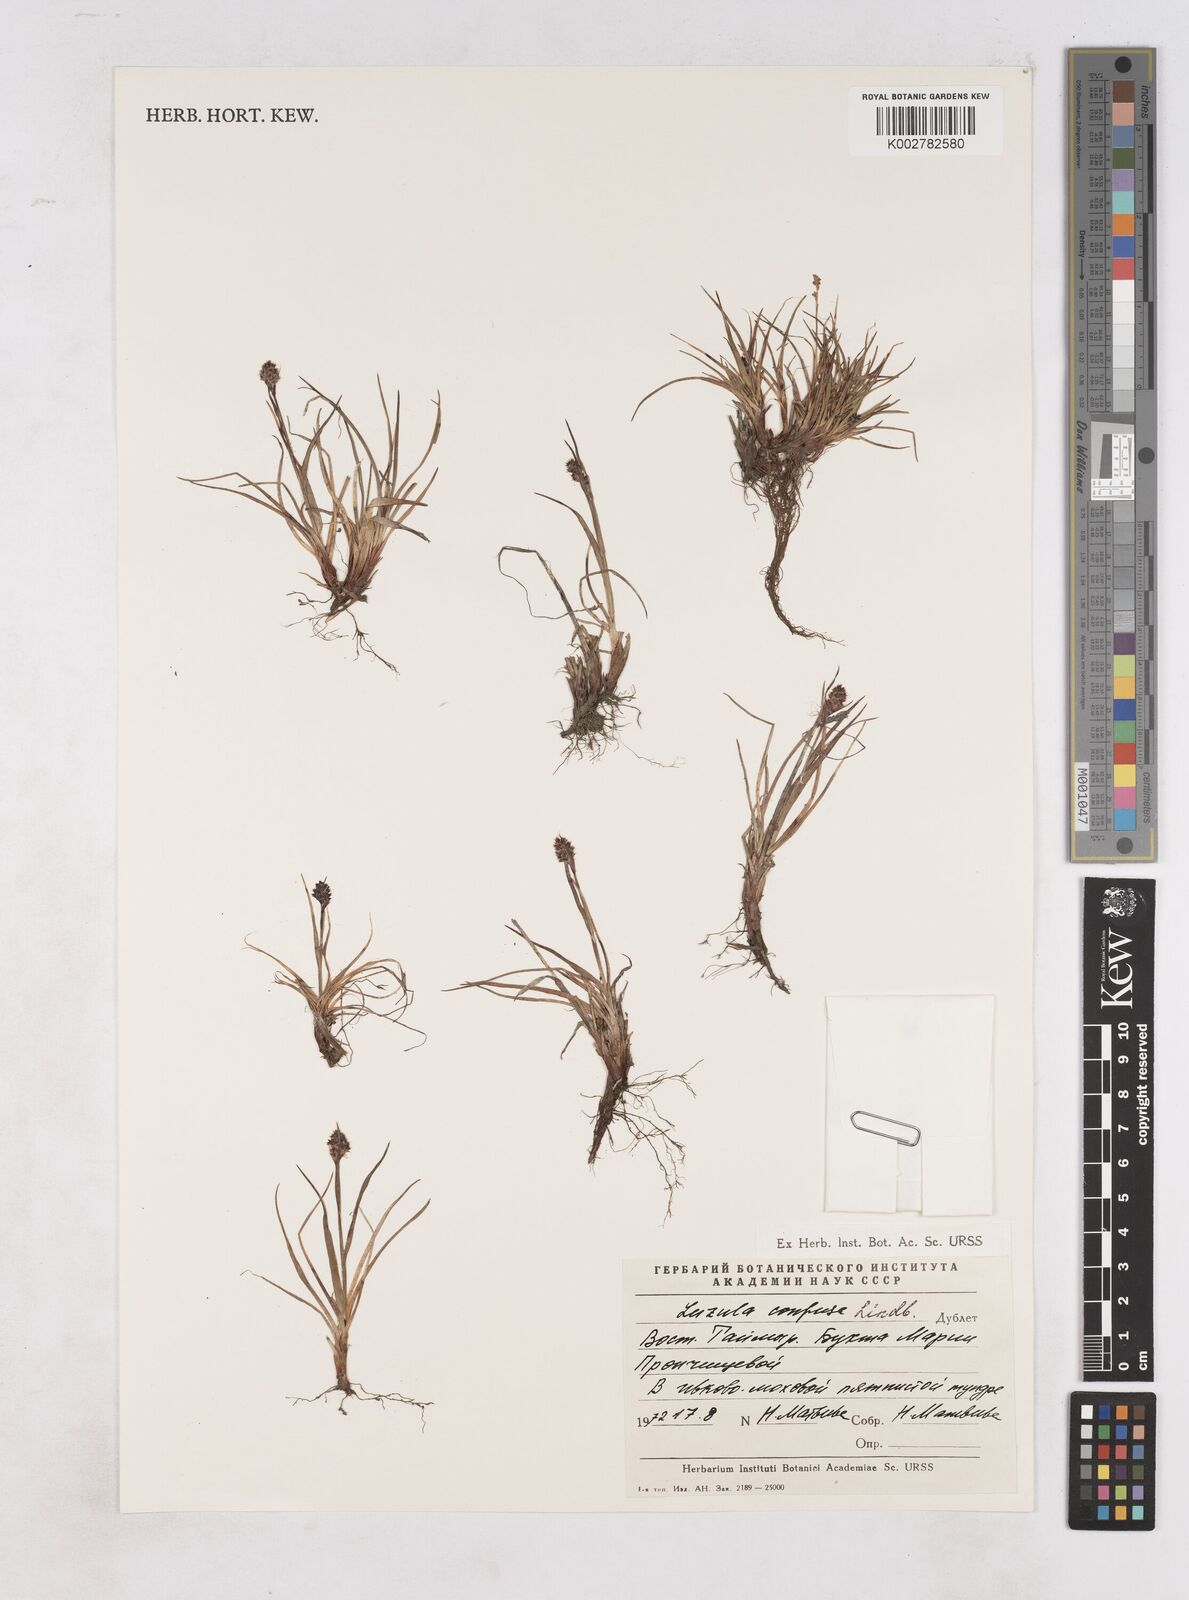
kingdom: Plantae
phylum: Tracheophyta
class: Liliopsida
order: Poales
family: Juncaceae
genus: Luzula
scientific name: Luzula confusa
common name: Northern wood rush
